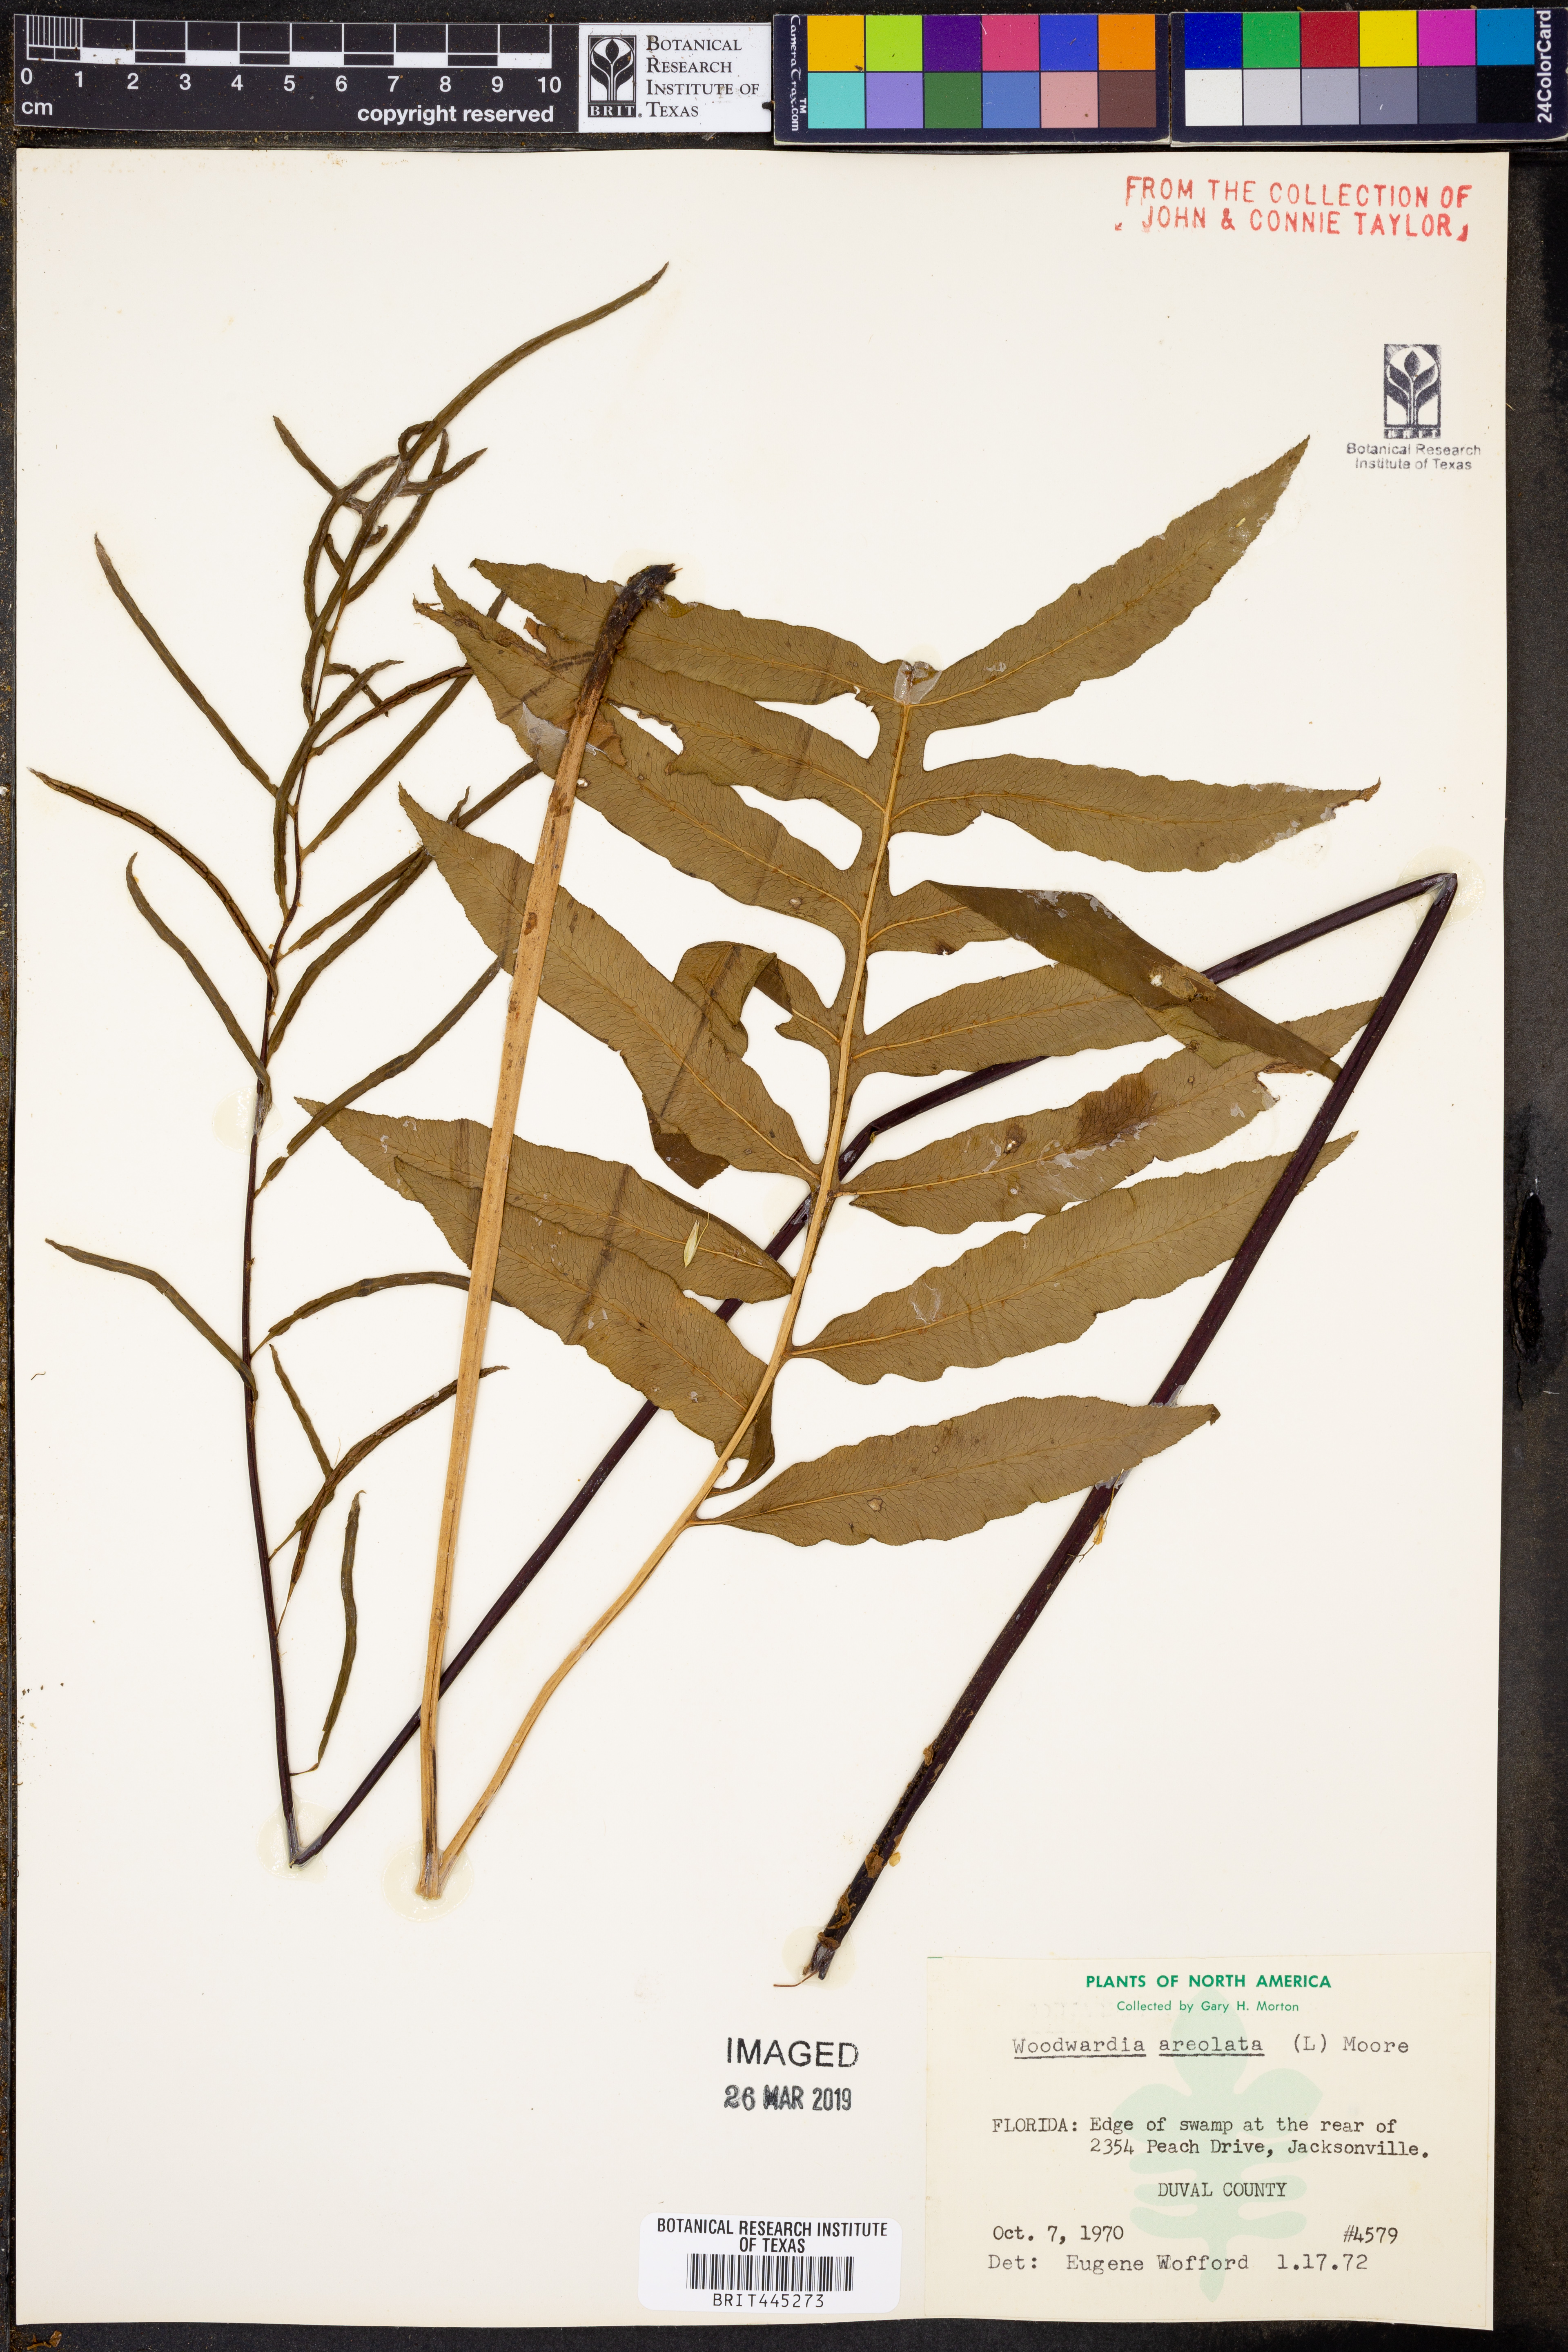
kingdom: Plantae
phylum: Tracheophyta
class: Polypodiopsida
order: Polypodiales
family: Blechnaceae
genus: Lorinseria
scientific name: Lorinseria areolata
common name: Dwarf chain fern
